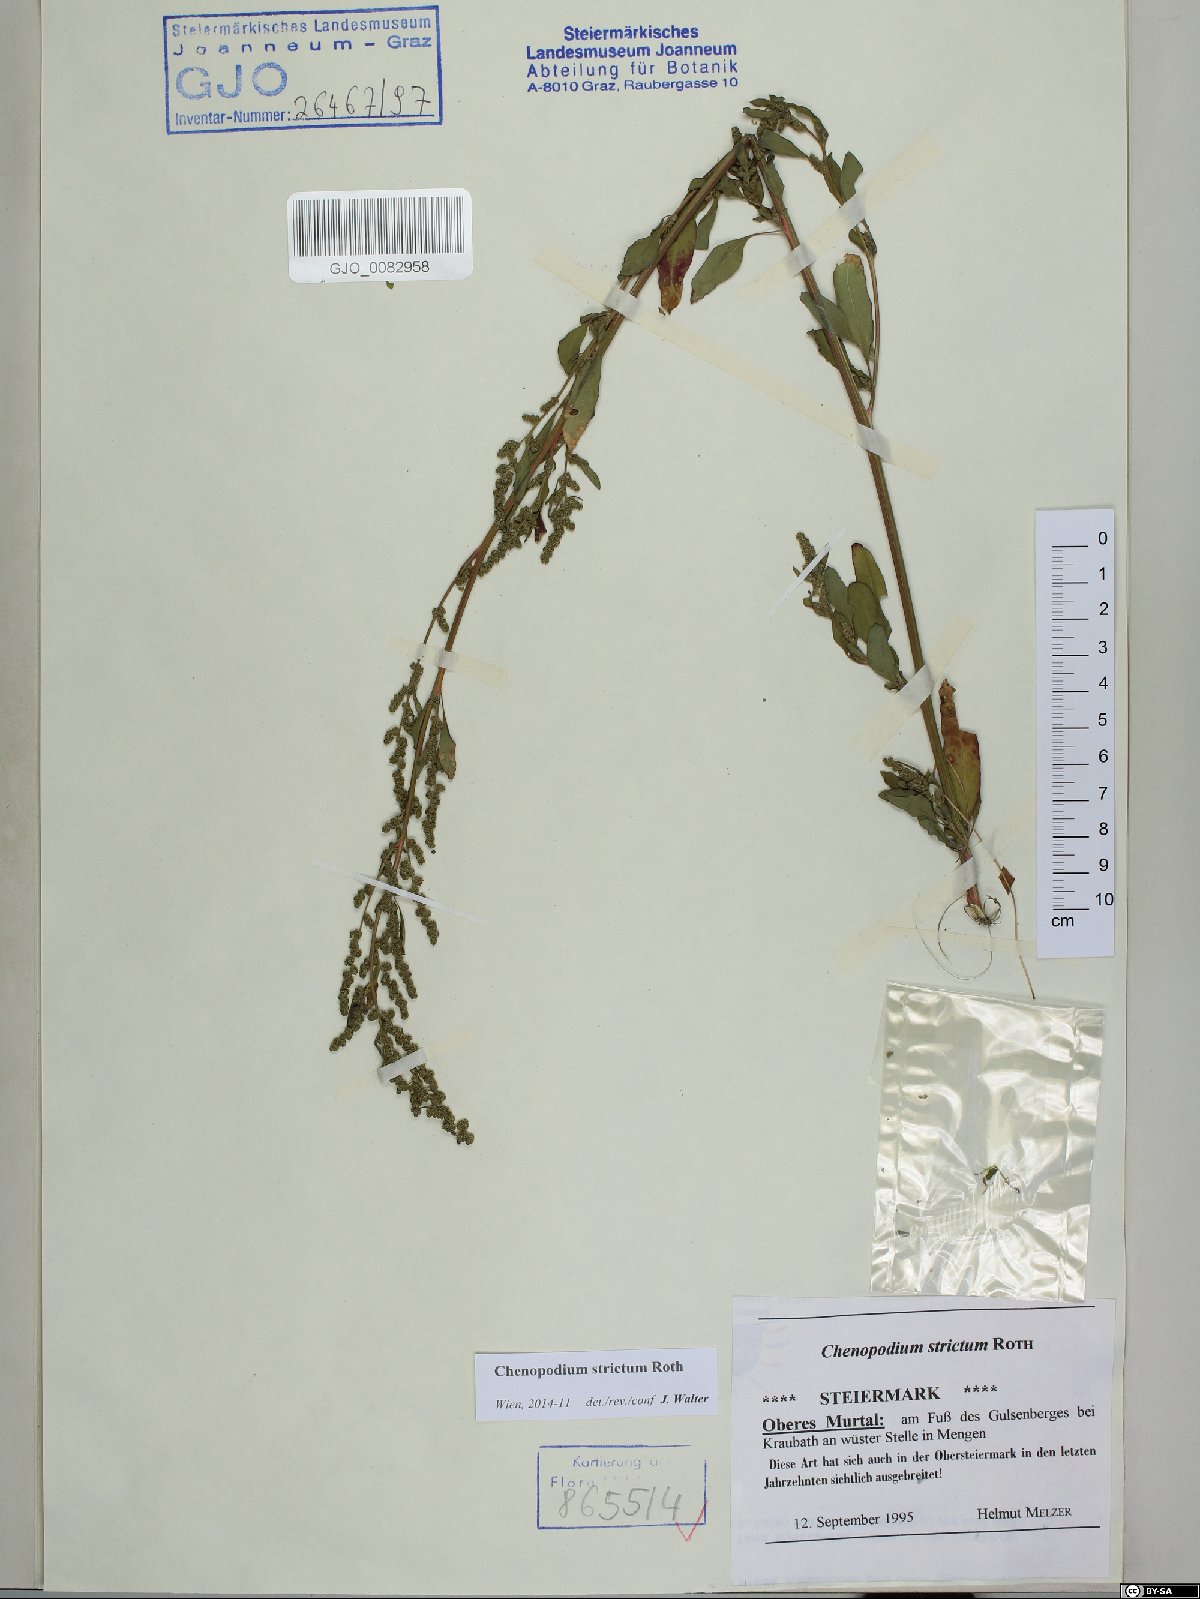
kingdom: Plantae
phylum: Tracheophyta
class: Magnoliopsida
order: Caryophyllales
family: Amaranthaceae
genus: Chenopodium
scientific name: Chenopodium album
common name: Fat-hen
